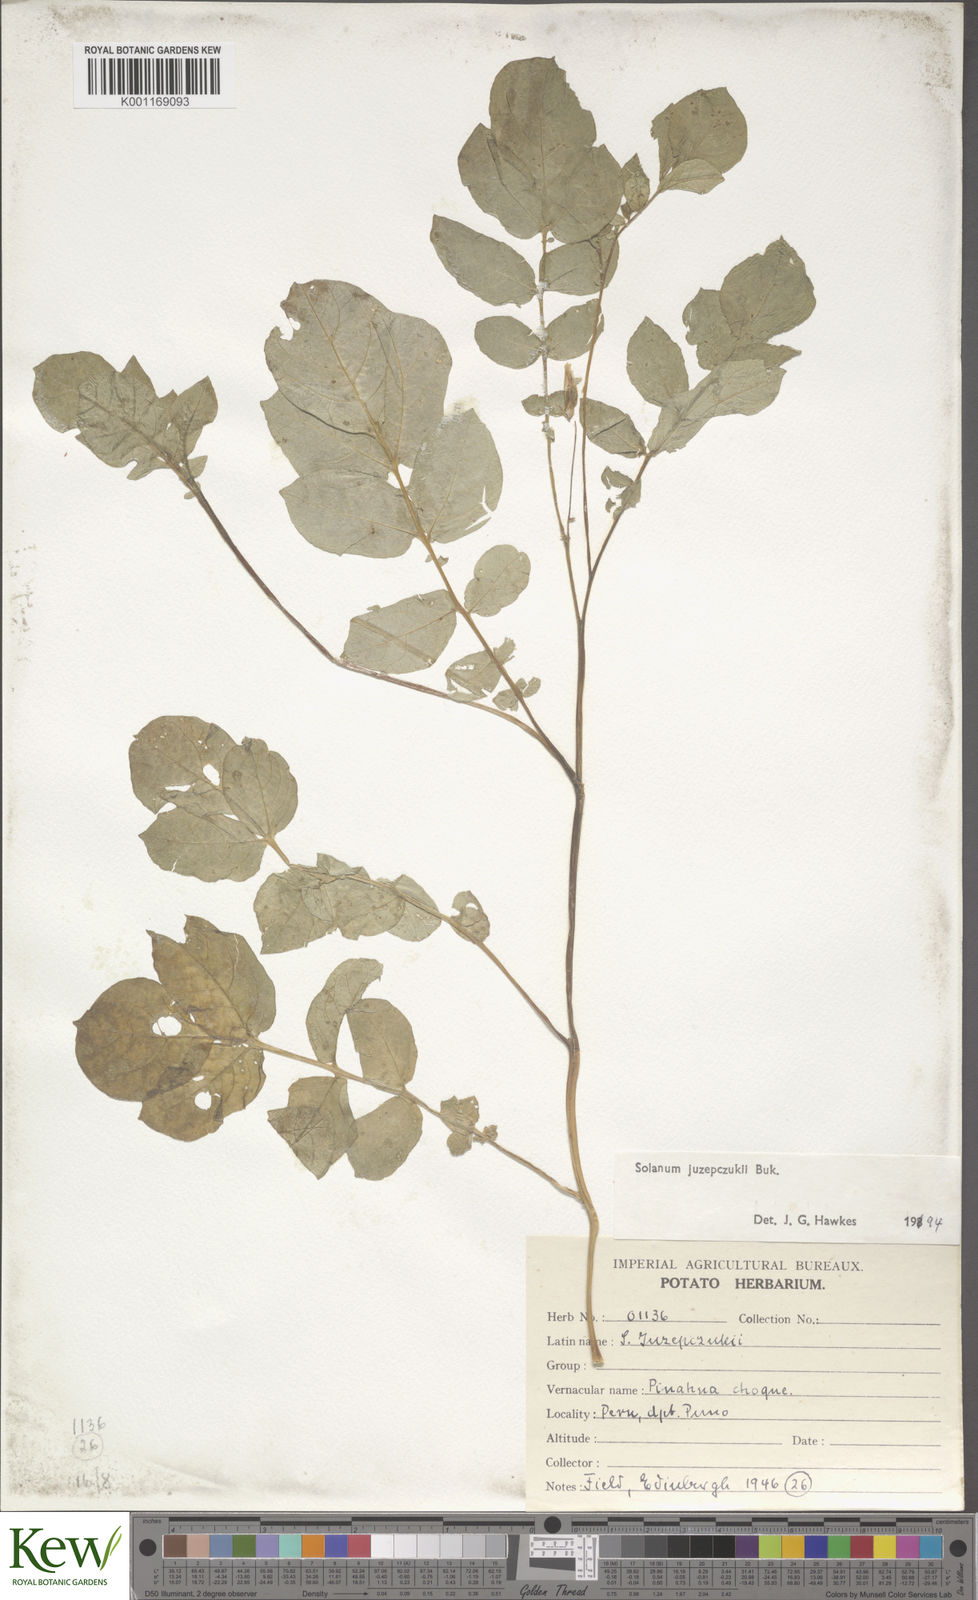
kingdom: Plantae
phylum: Tracheophyta
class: Magnoliopsida
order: Solanales
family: Solanaceae
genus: Solanum
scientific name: Solanum juzepczukii
